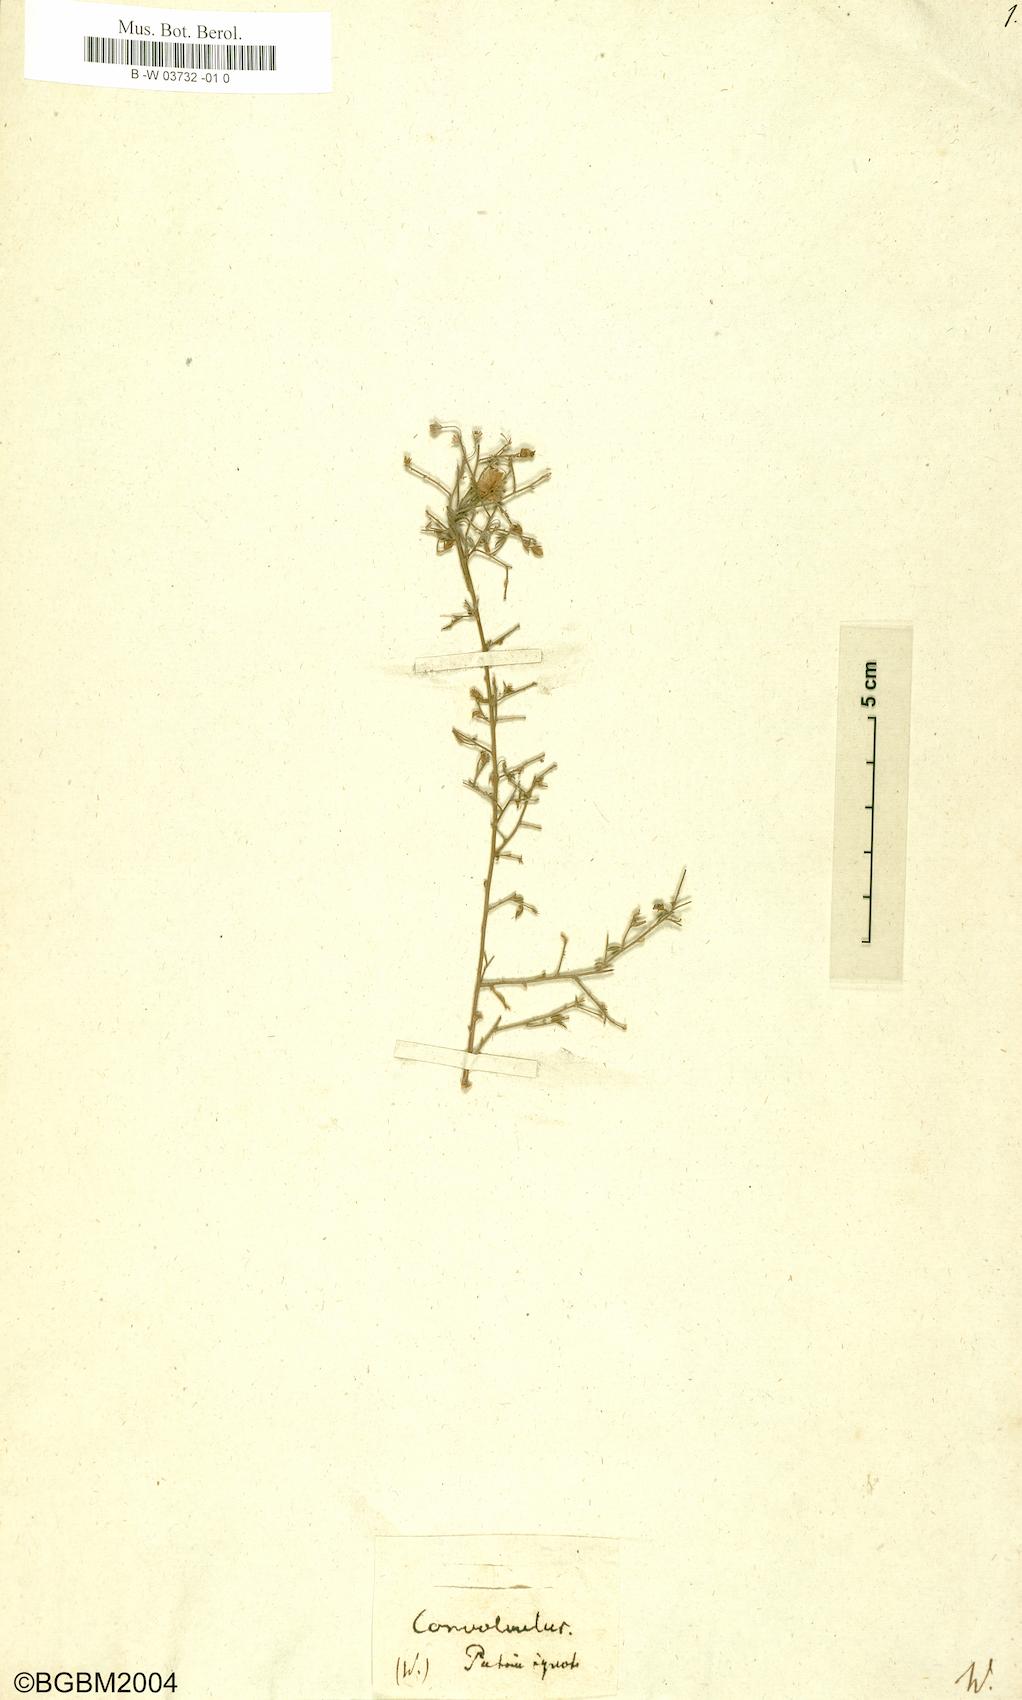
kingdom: Plantae
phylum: Tracheophyta
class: Magnoliopsida
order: Solanales
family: Convolvulaceae
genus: Convolvulus
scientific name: Convolvulus
